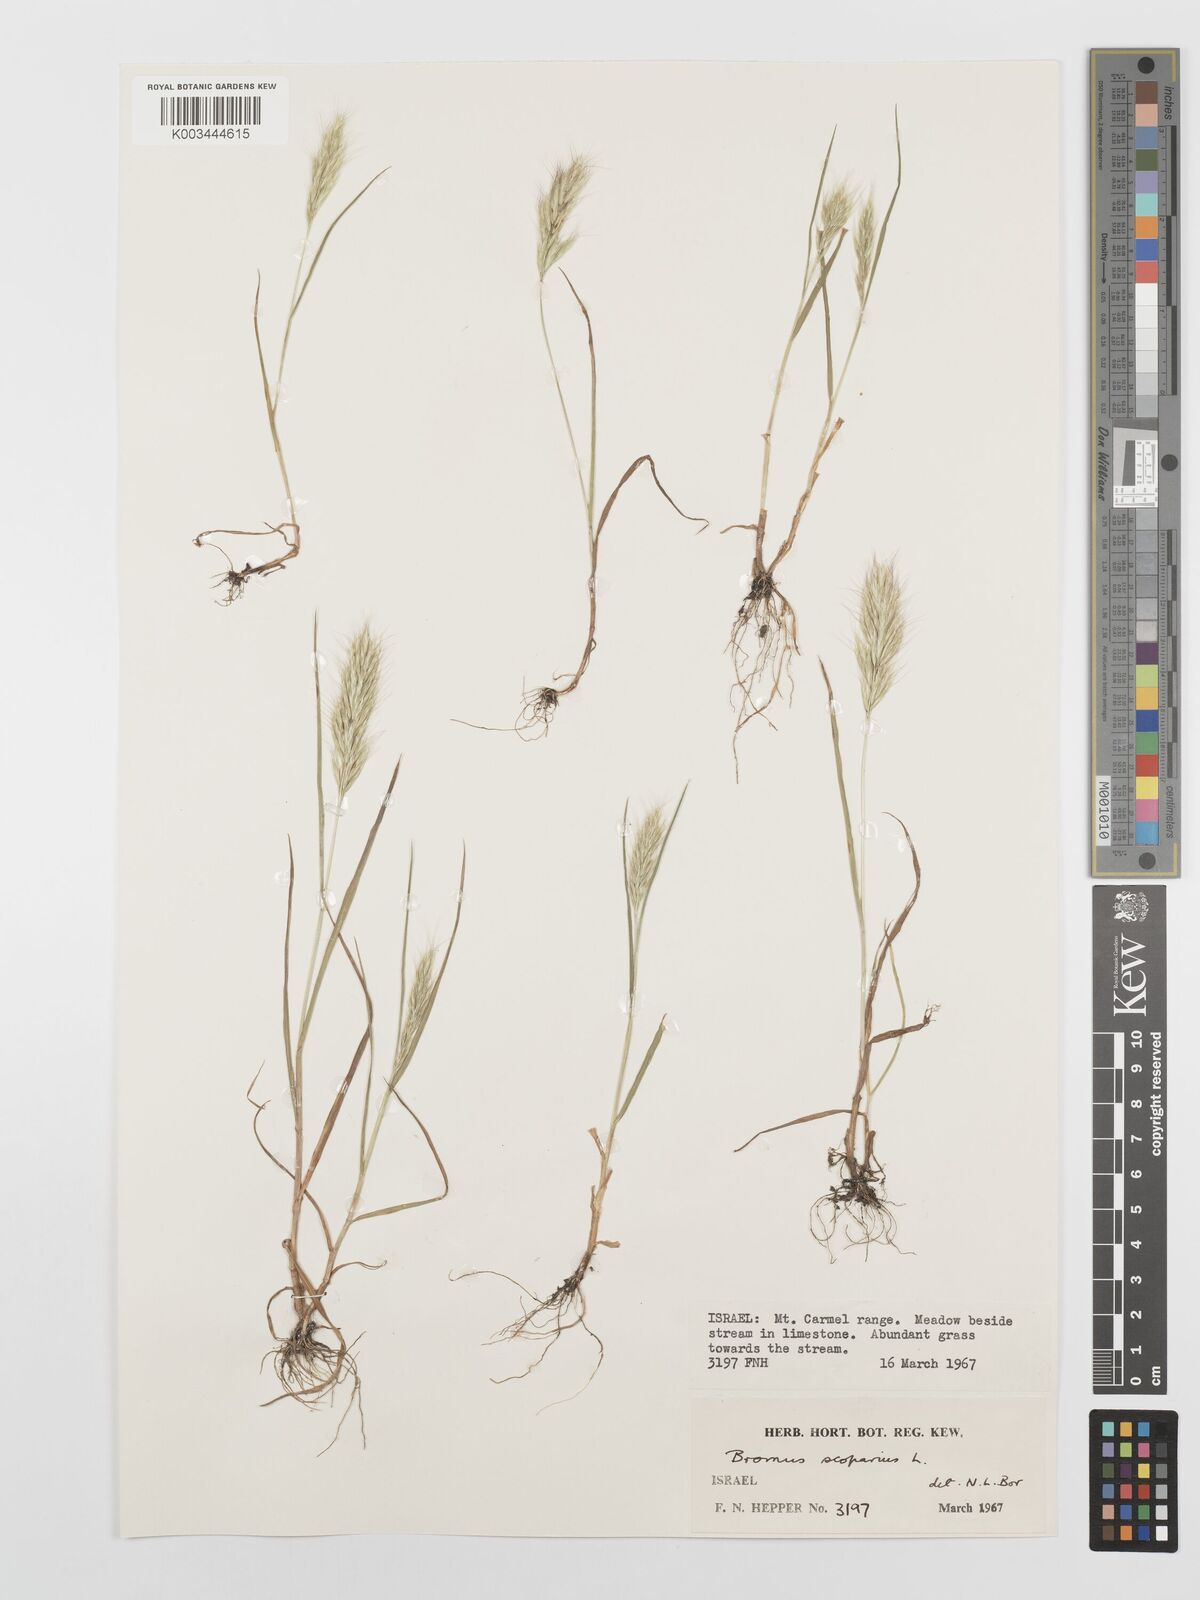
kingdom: Plantae
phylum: Tracheophyta
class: Liliopsida
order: Poales
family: Poaceae
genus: Bromus
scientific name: Bromus scoparius
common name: Broom brome
